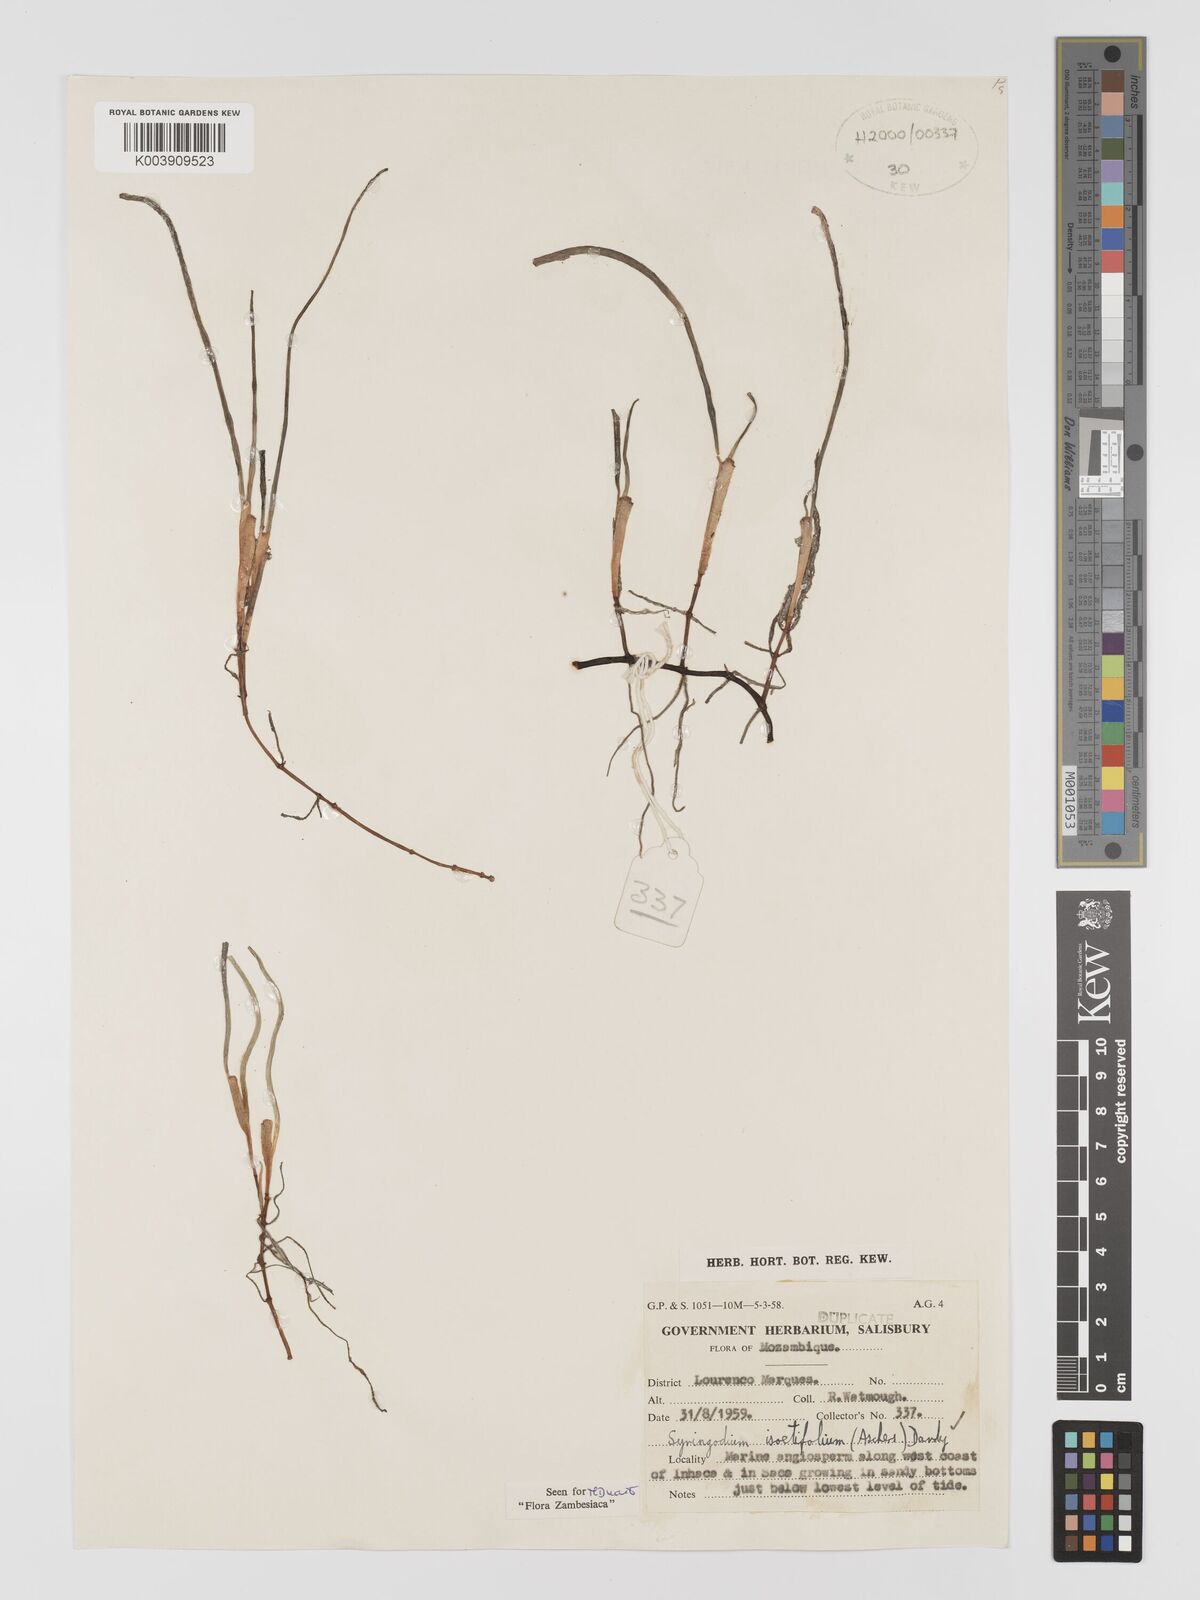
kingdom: Plantae
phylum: Tracheophyta
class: Liliopsida
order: Alismatales
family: Cymodoceaceae
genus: Syringodium
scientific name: Syringodium isoetifolium
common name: Species code: si
